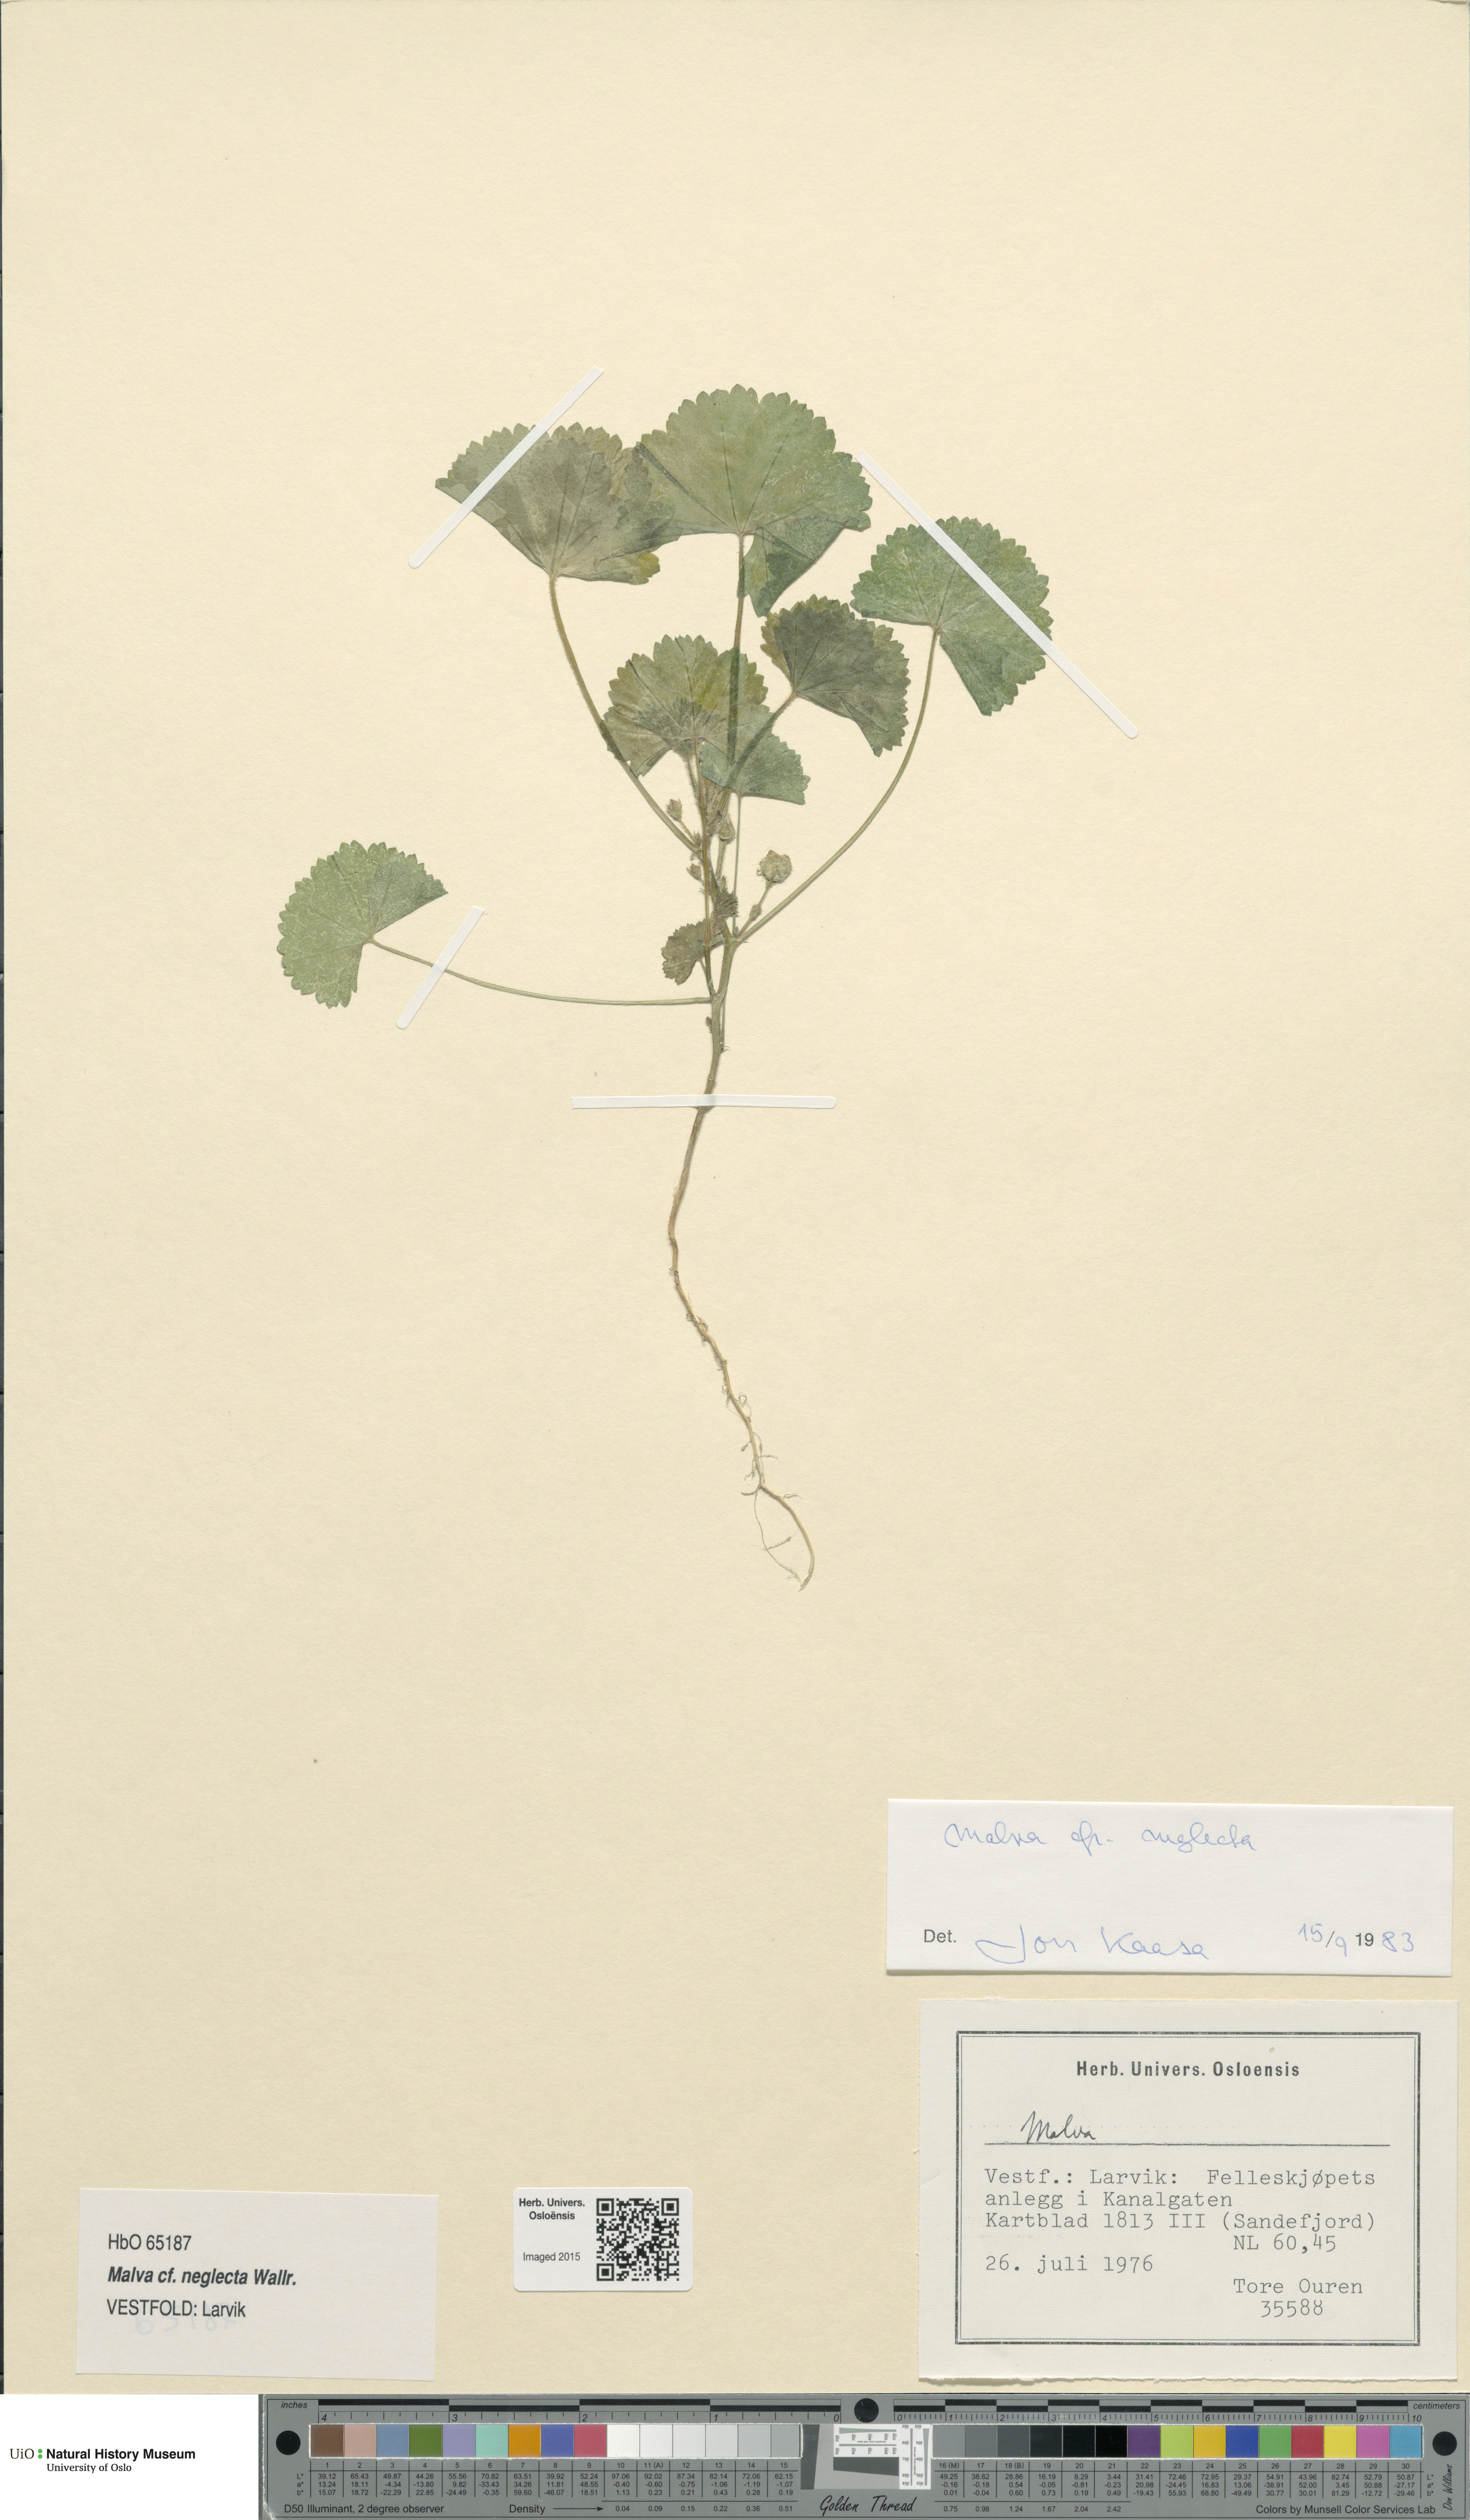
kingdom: Plantae
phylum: Tracheophyta
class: Magnoliopsida
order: Malvales
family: Malvaceae
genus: Malva
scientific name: Malva neglecta
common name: Common mallow
